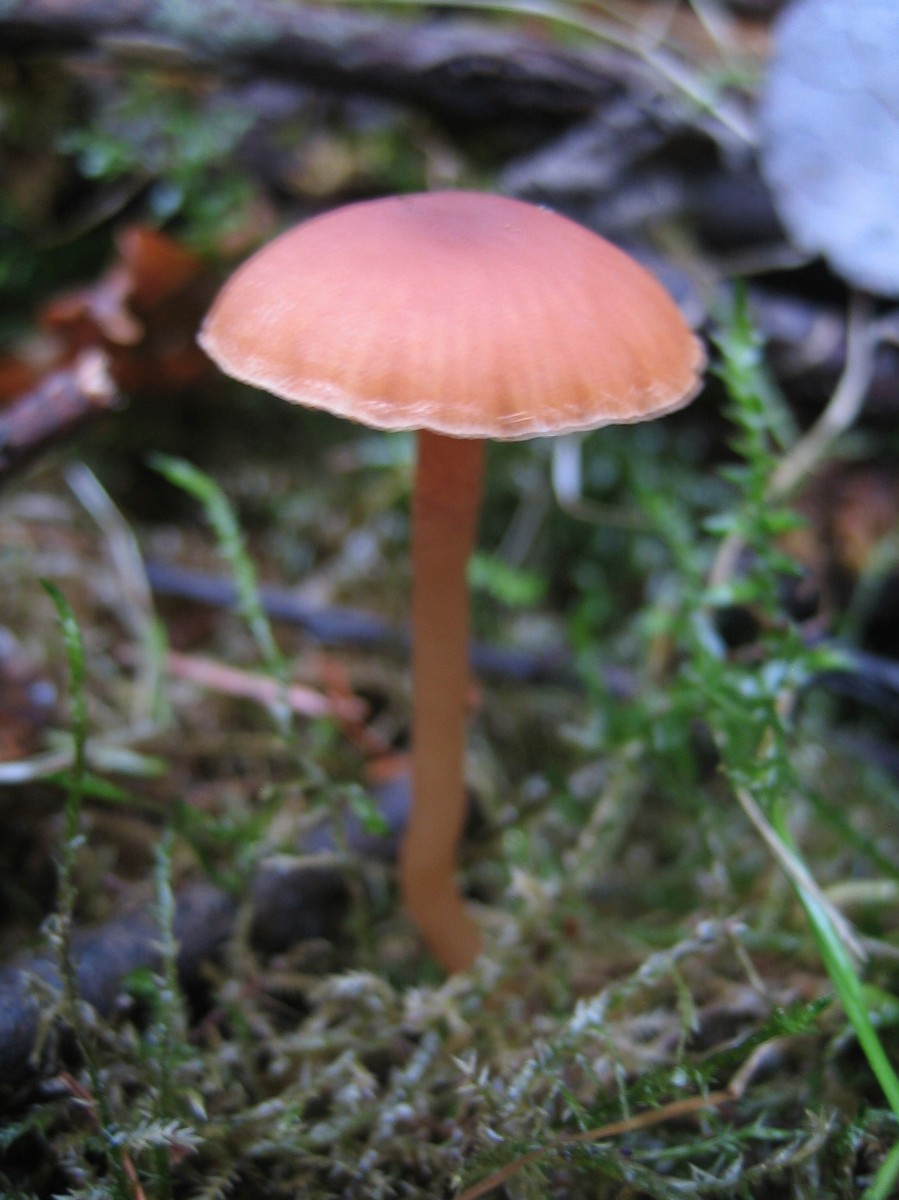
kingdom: Fungi
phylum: Basidiomycota
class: Agaricomycetes
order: Agaricales
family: Tubariaceae
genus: Tubaria
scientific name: Tubaria furfuracea
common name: kliddet fnughat
